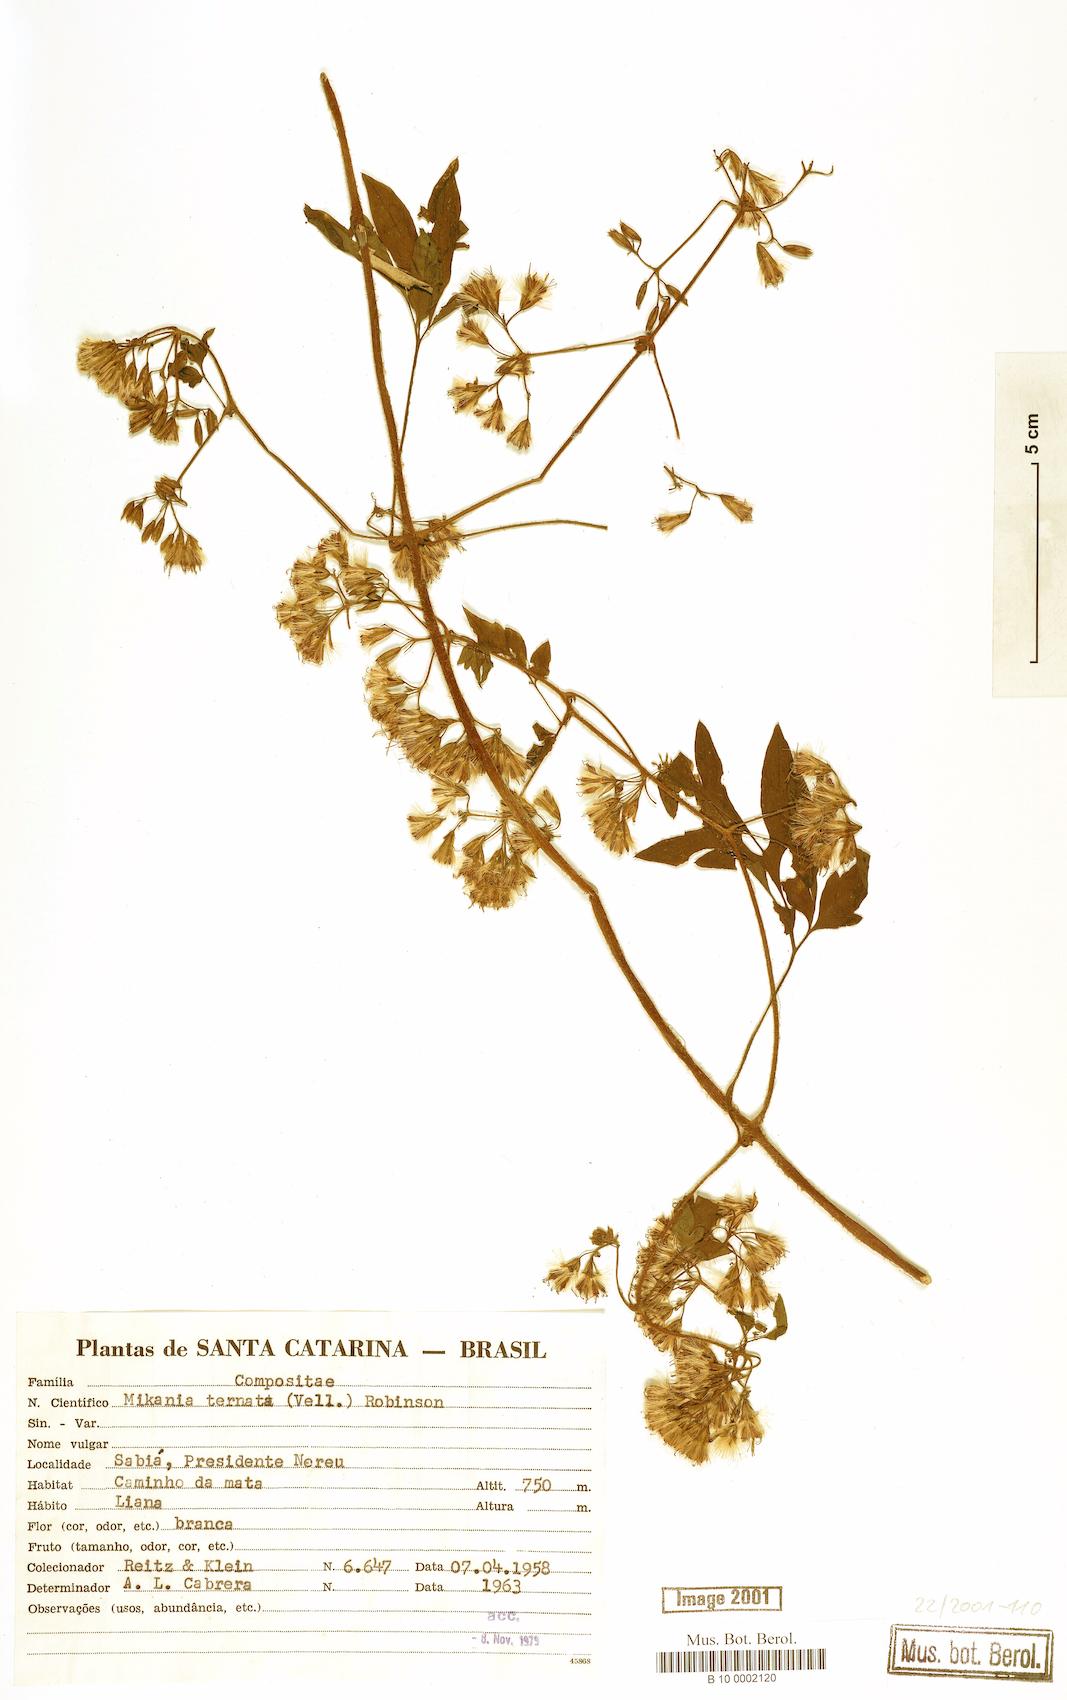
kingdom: Plantae
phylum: Tracheophyta
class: Magnoliopsida
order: Asterales
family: Asteraceae
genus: Mikania
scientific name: Mikania ternata
